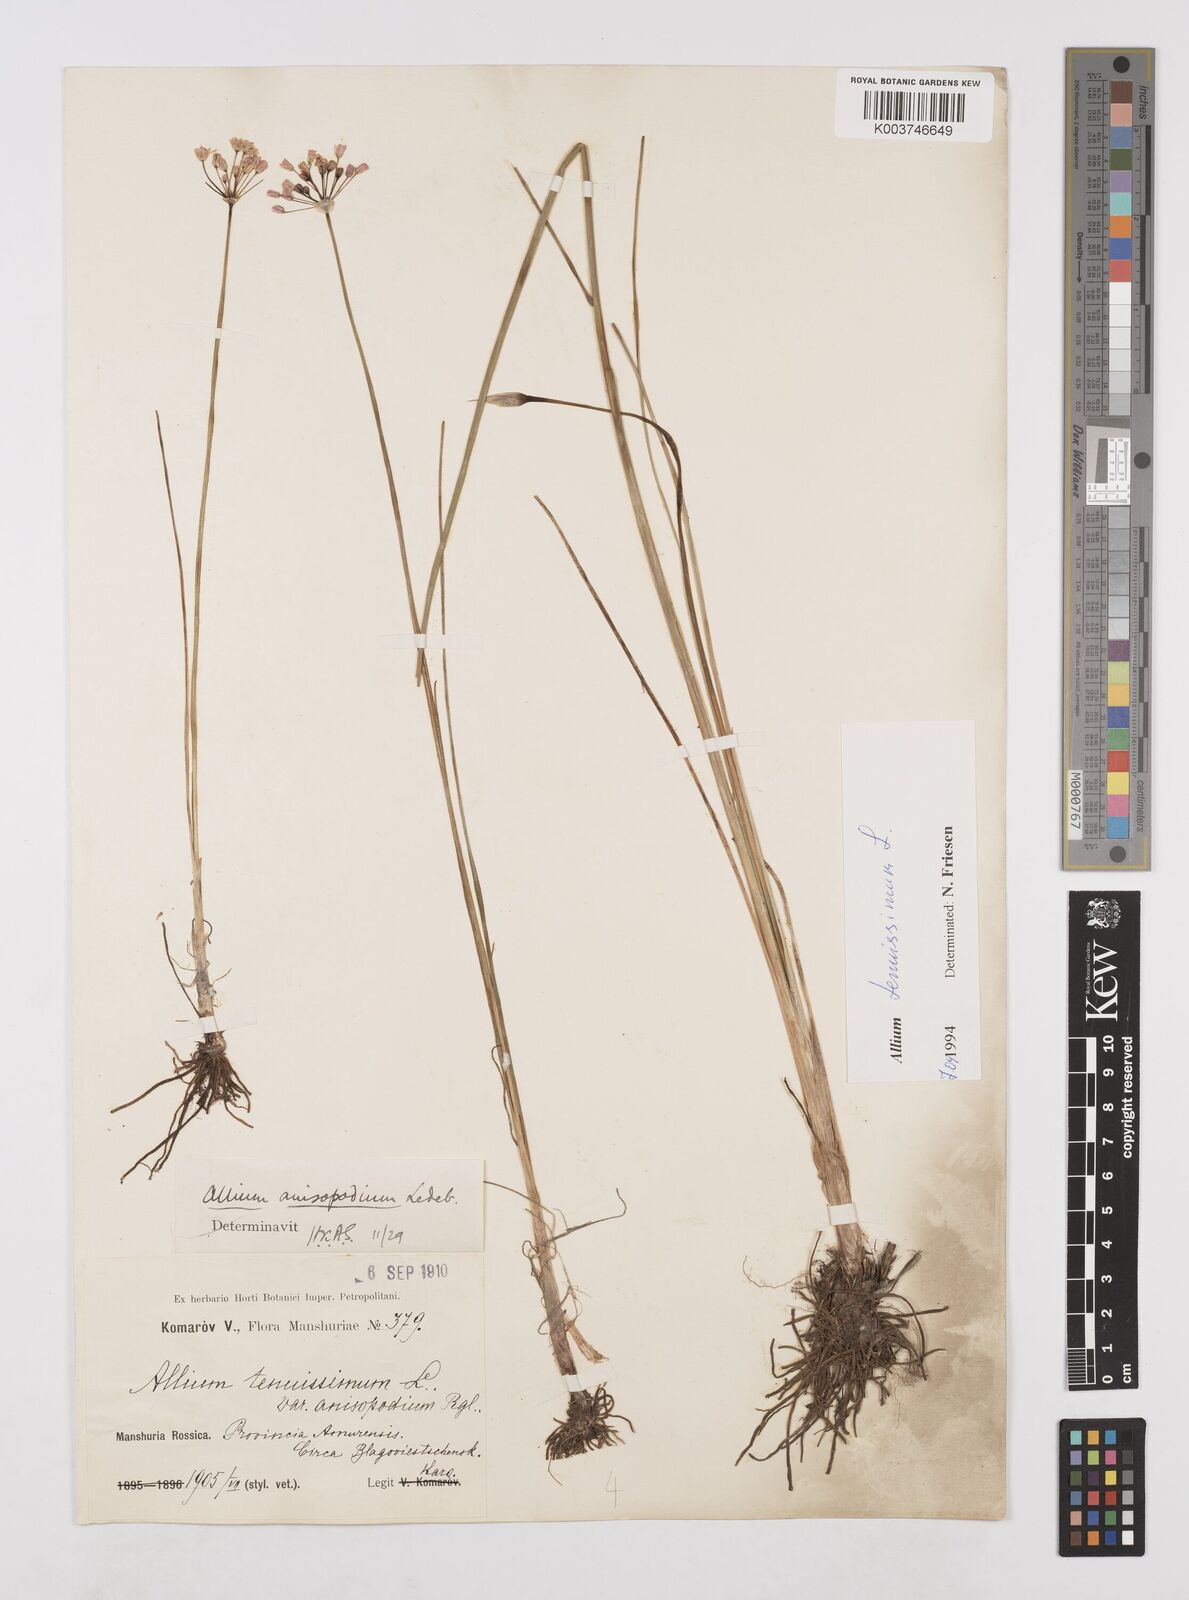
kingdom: Plantae
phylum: Tracheophyta
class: Liliopsida
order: Asparagales
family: Amaryllidaceae
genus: Allium
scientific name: Allium tenuissimum
